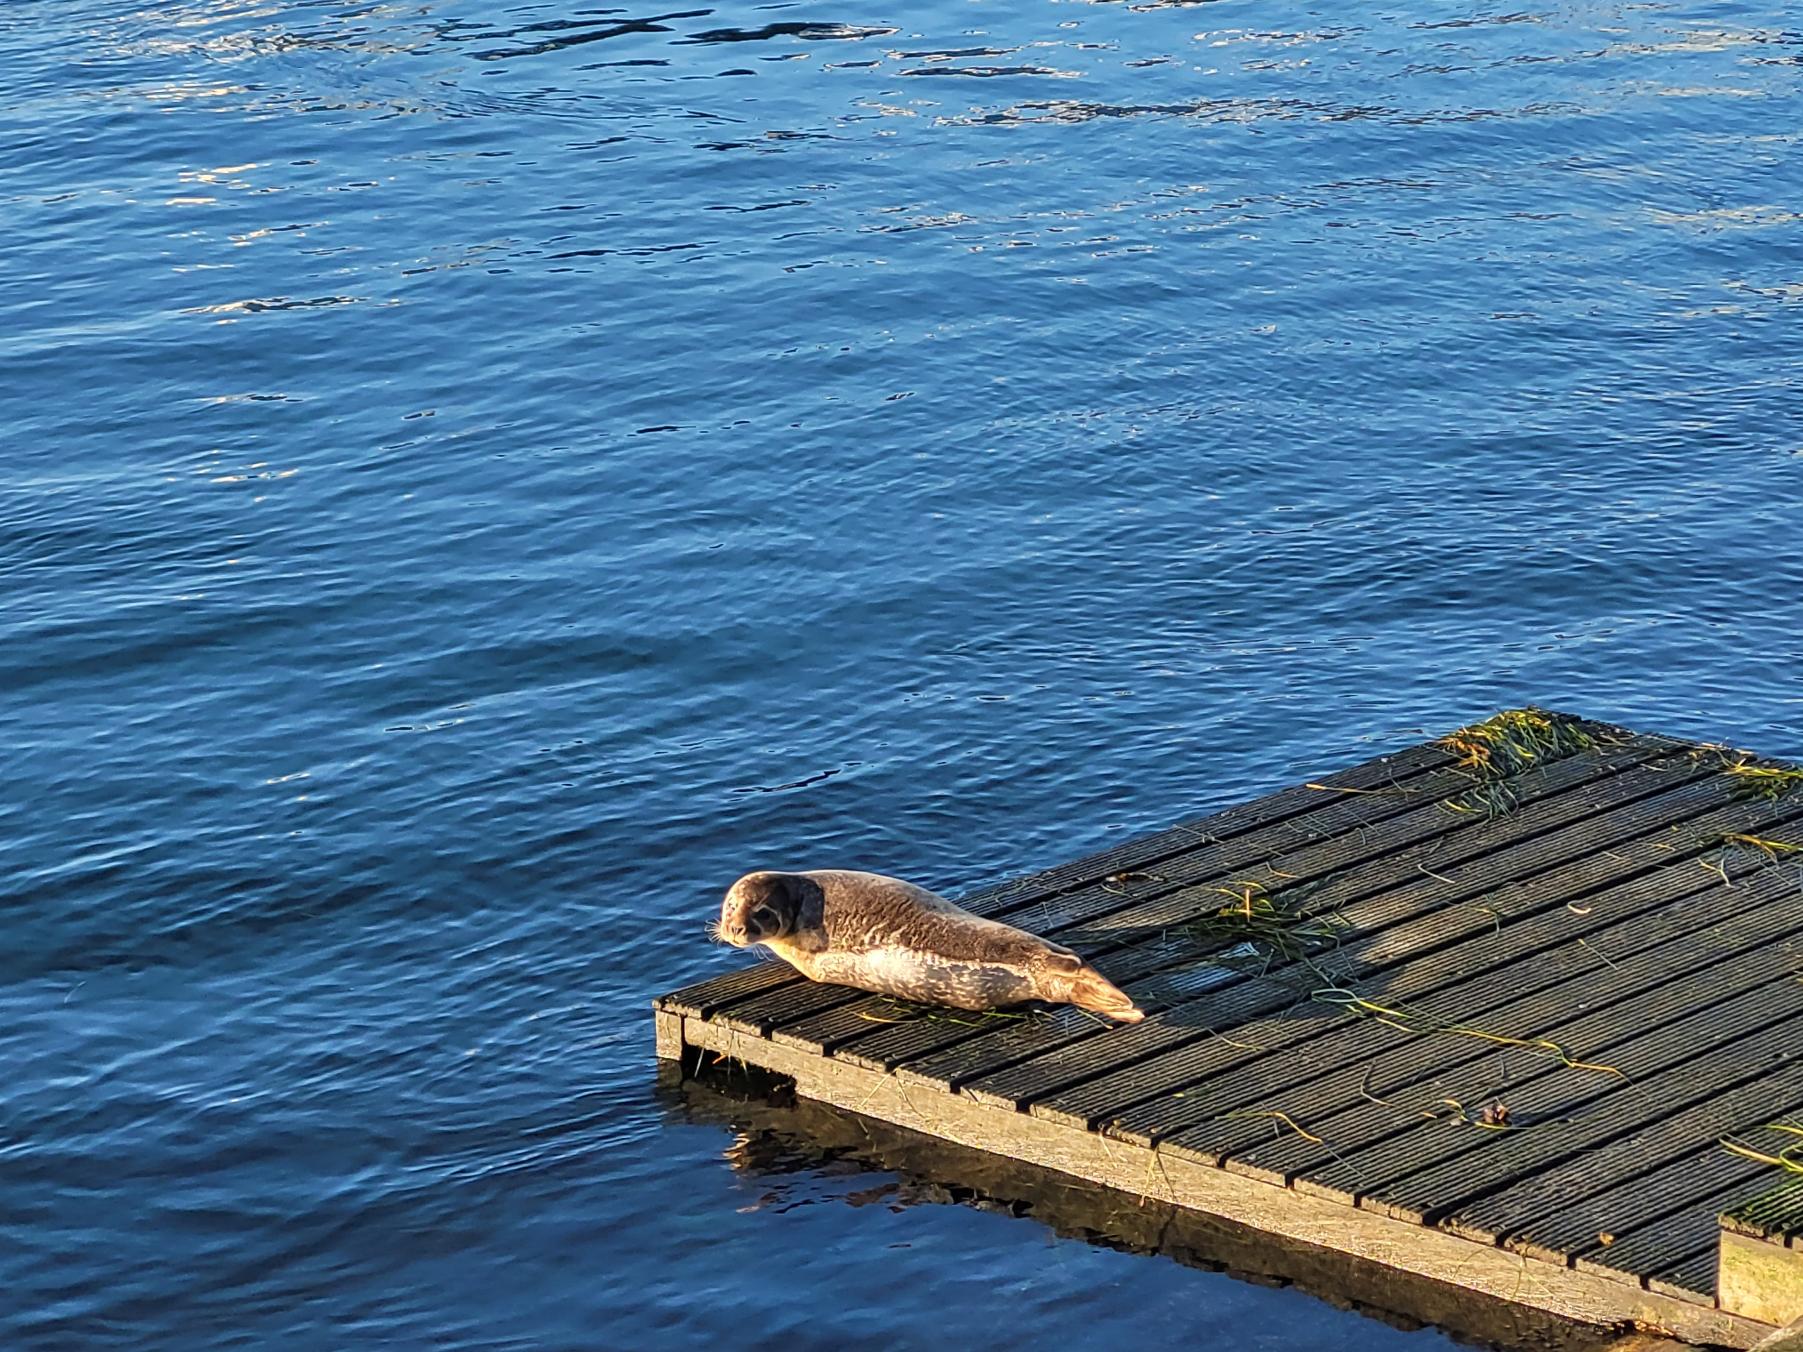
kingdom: Animalia
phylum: Chordata
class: Mammalia
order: Carnivora
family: Phocidae
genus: Phoca
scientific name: Phoca vitulina
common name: Spættet sæl
